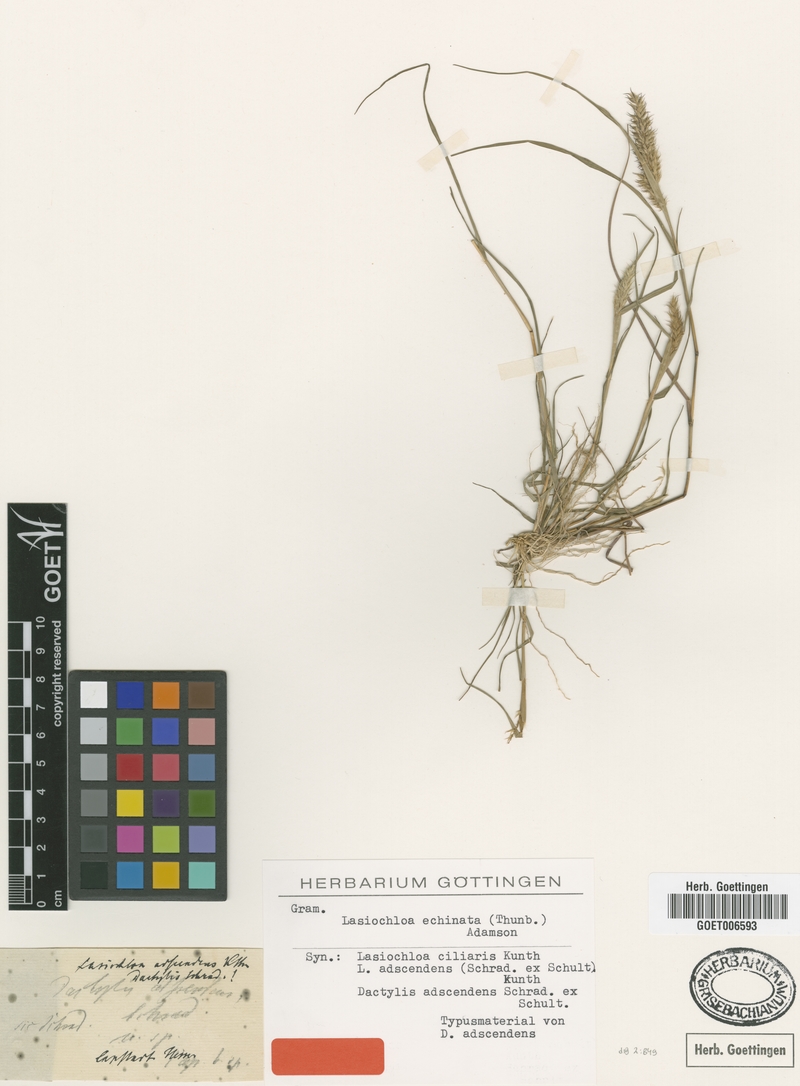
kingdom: Plantae
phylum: Tracheophyta
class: Liliopsida
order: Poales
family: Poaceae
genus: Tribolium
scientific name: Tribolium echinatum
